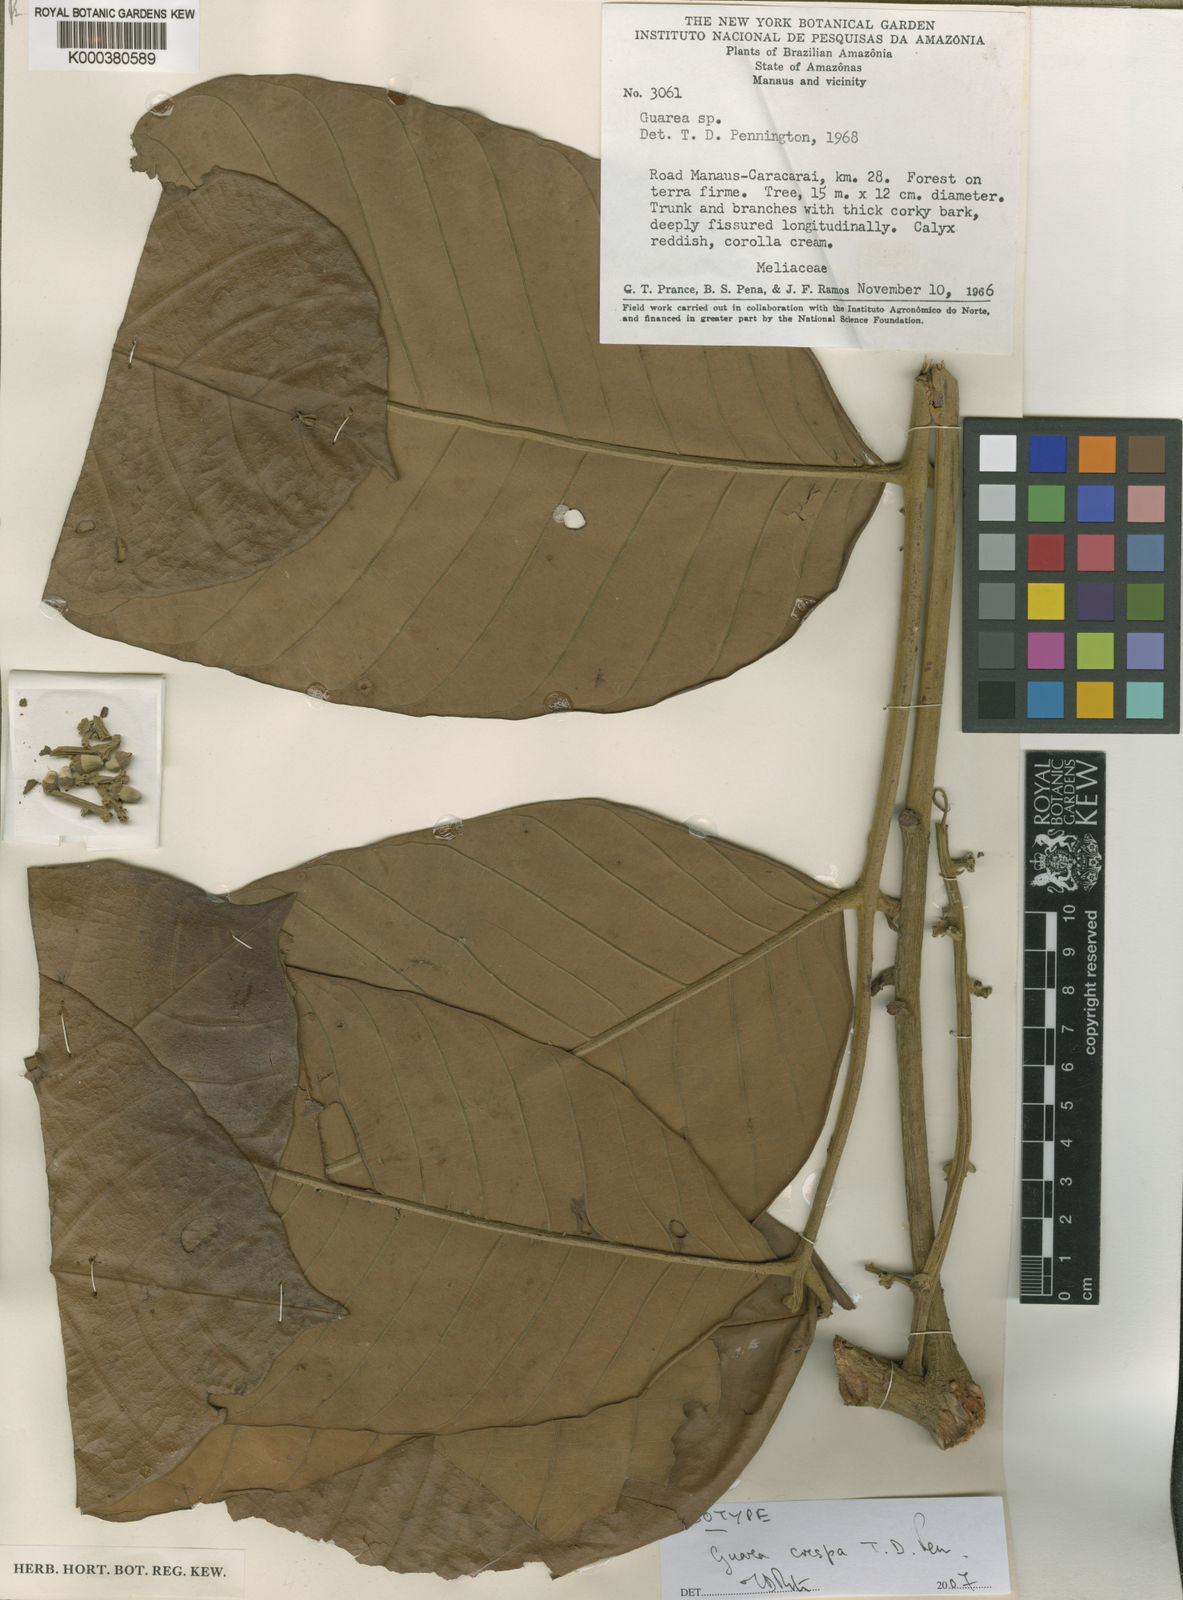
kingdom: Plantae
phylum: Tracheophyta
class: Magnoliopsida
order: Sapindales
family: Meliaceae
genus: Guarea
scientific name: Guarea crispa
